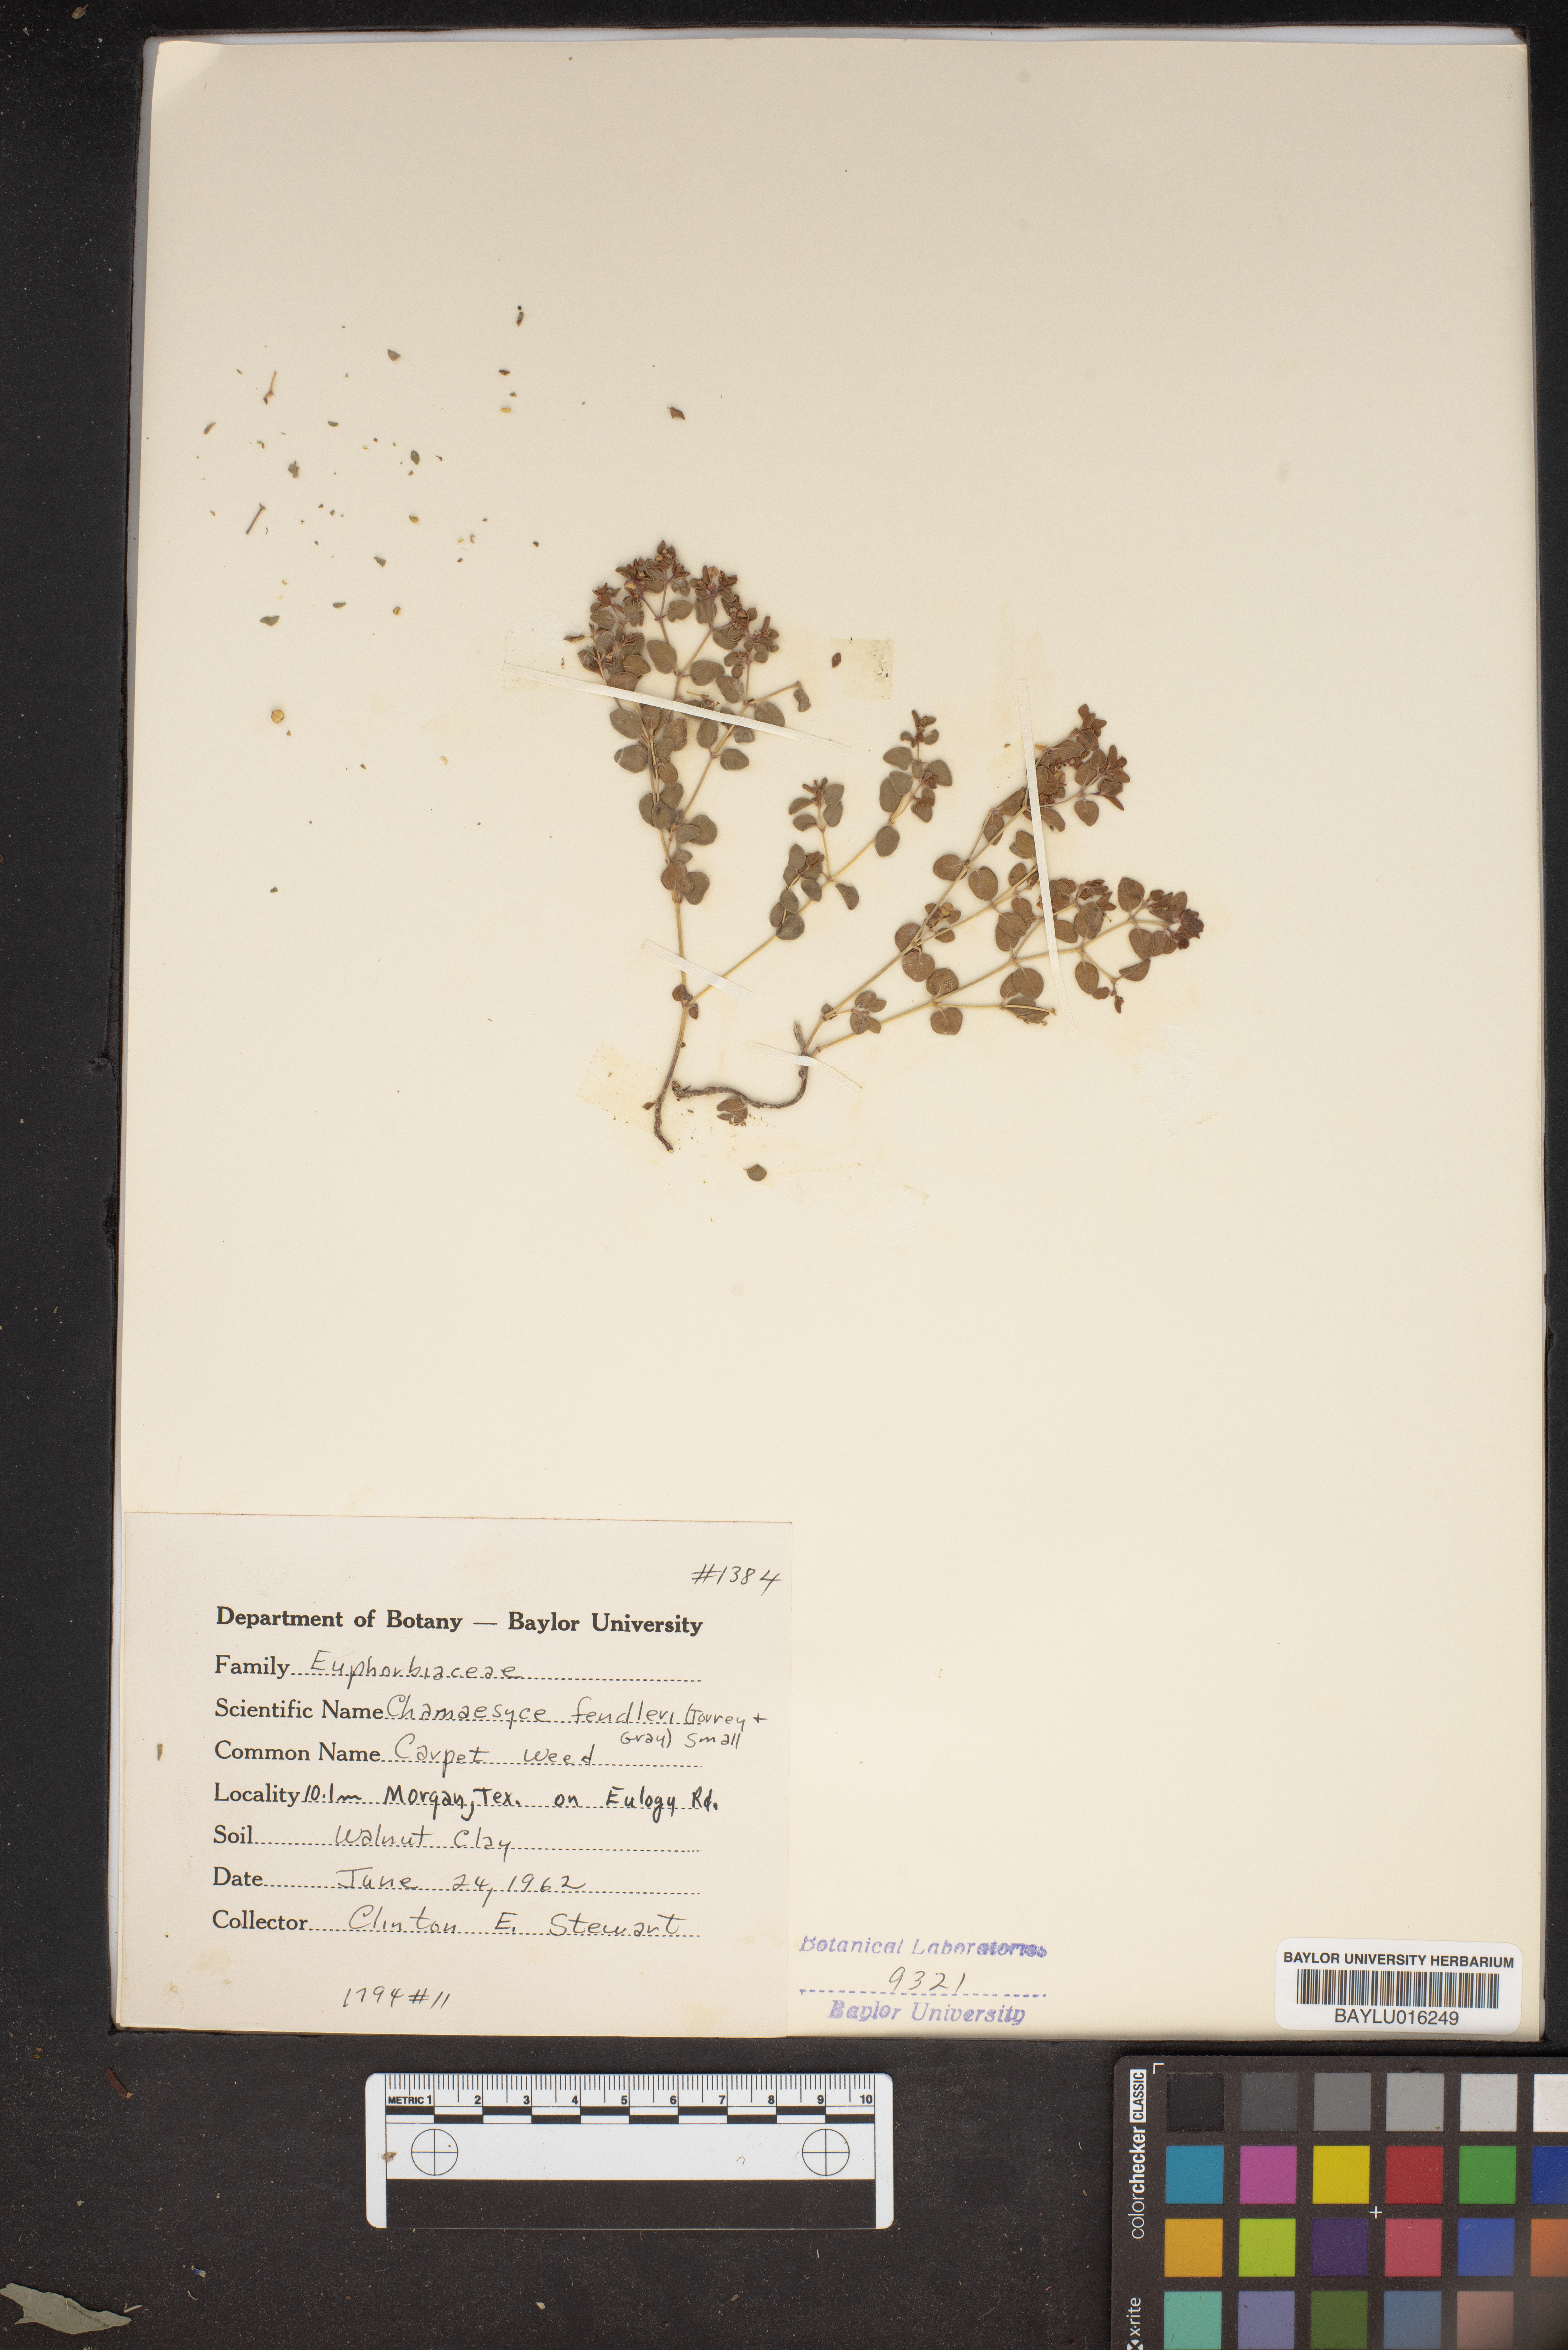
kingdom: Plantae
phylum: Tracheophyta
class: Magnoliopsida
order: Malpighiales
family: Euphorbiaceae
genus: Euphorbia
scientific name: Euphorbia fendleri
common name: Fendler's euphorbia
